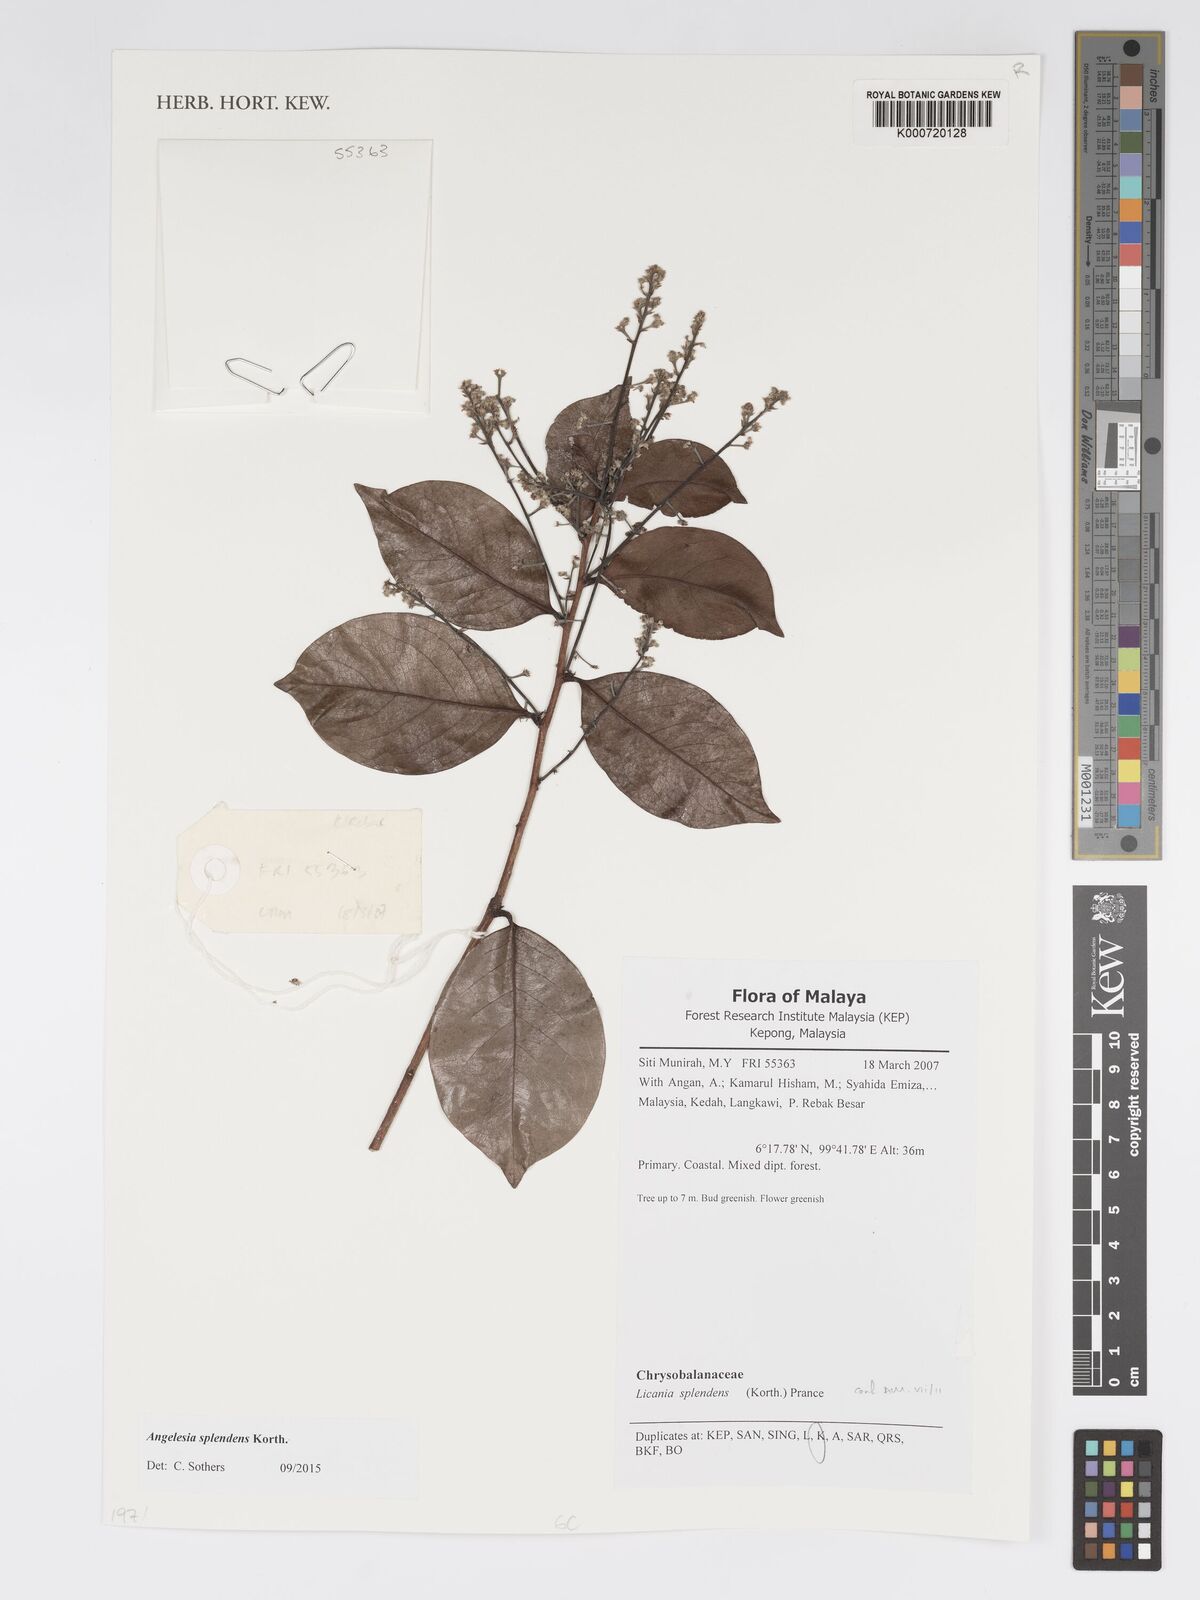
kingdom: Plantae
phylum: Tracheophyta
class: Magnoliopsida
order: Malpighiales
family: Chrysobalanaceae
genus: Angelesia
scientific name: Angelesia splendens
